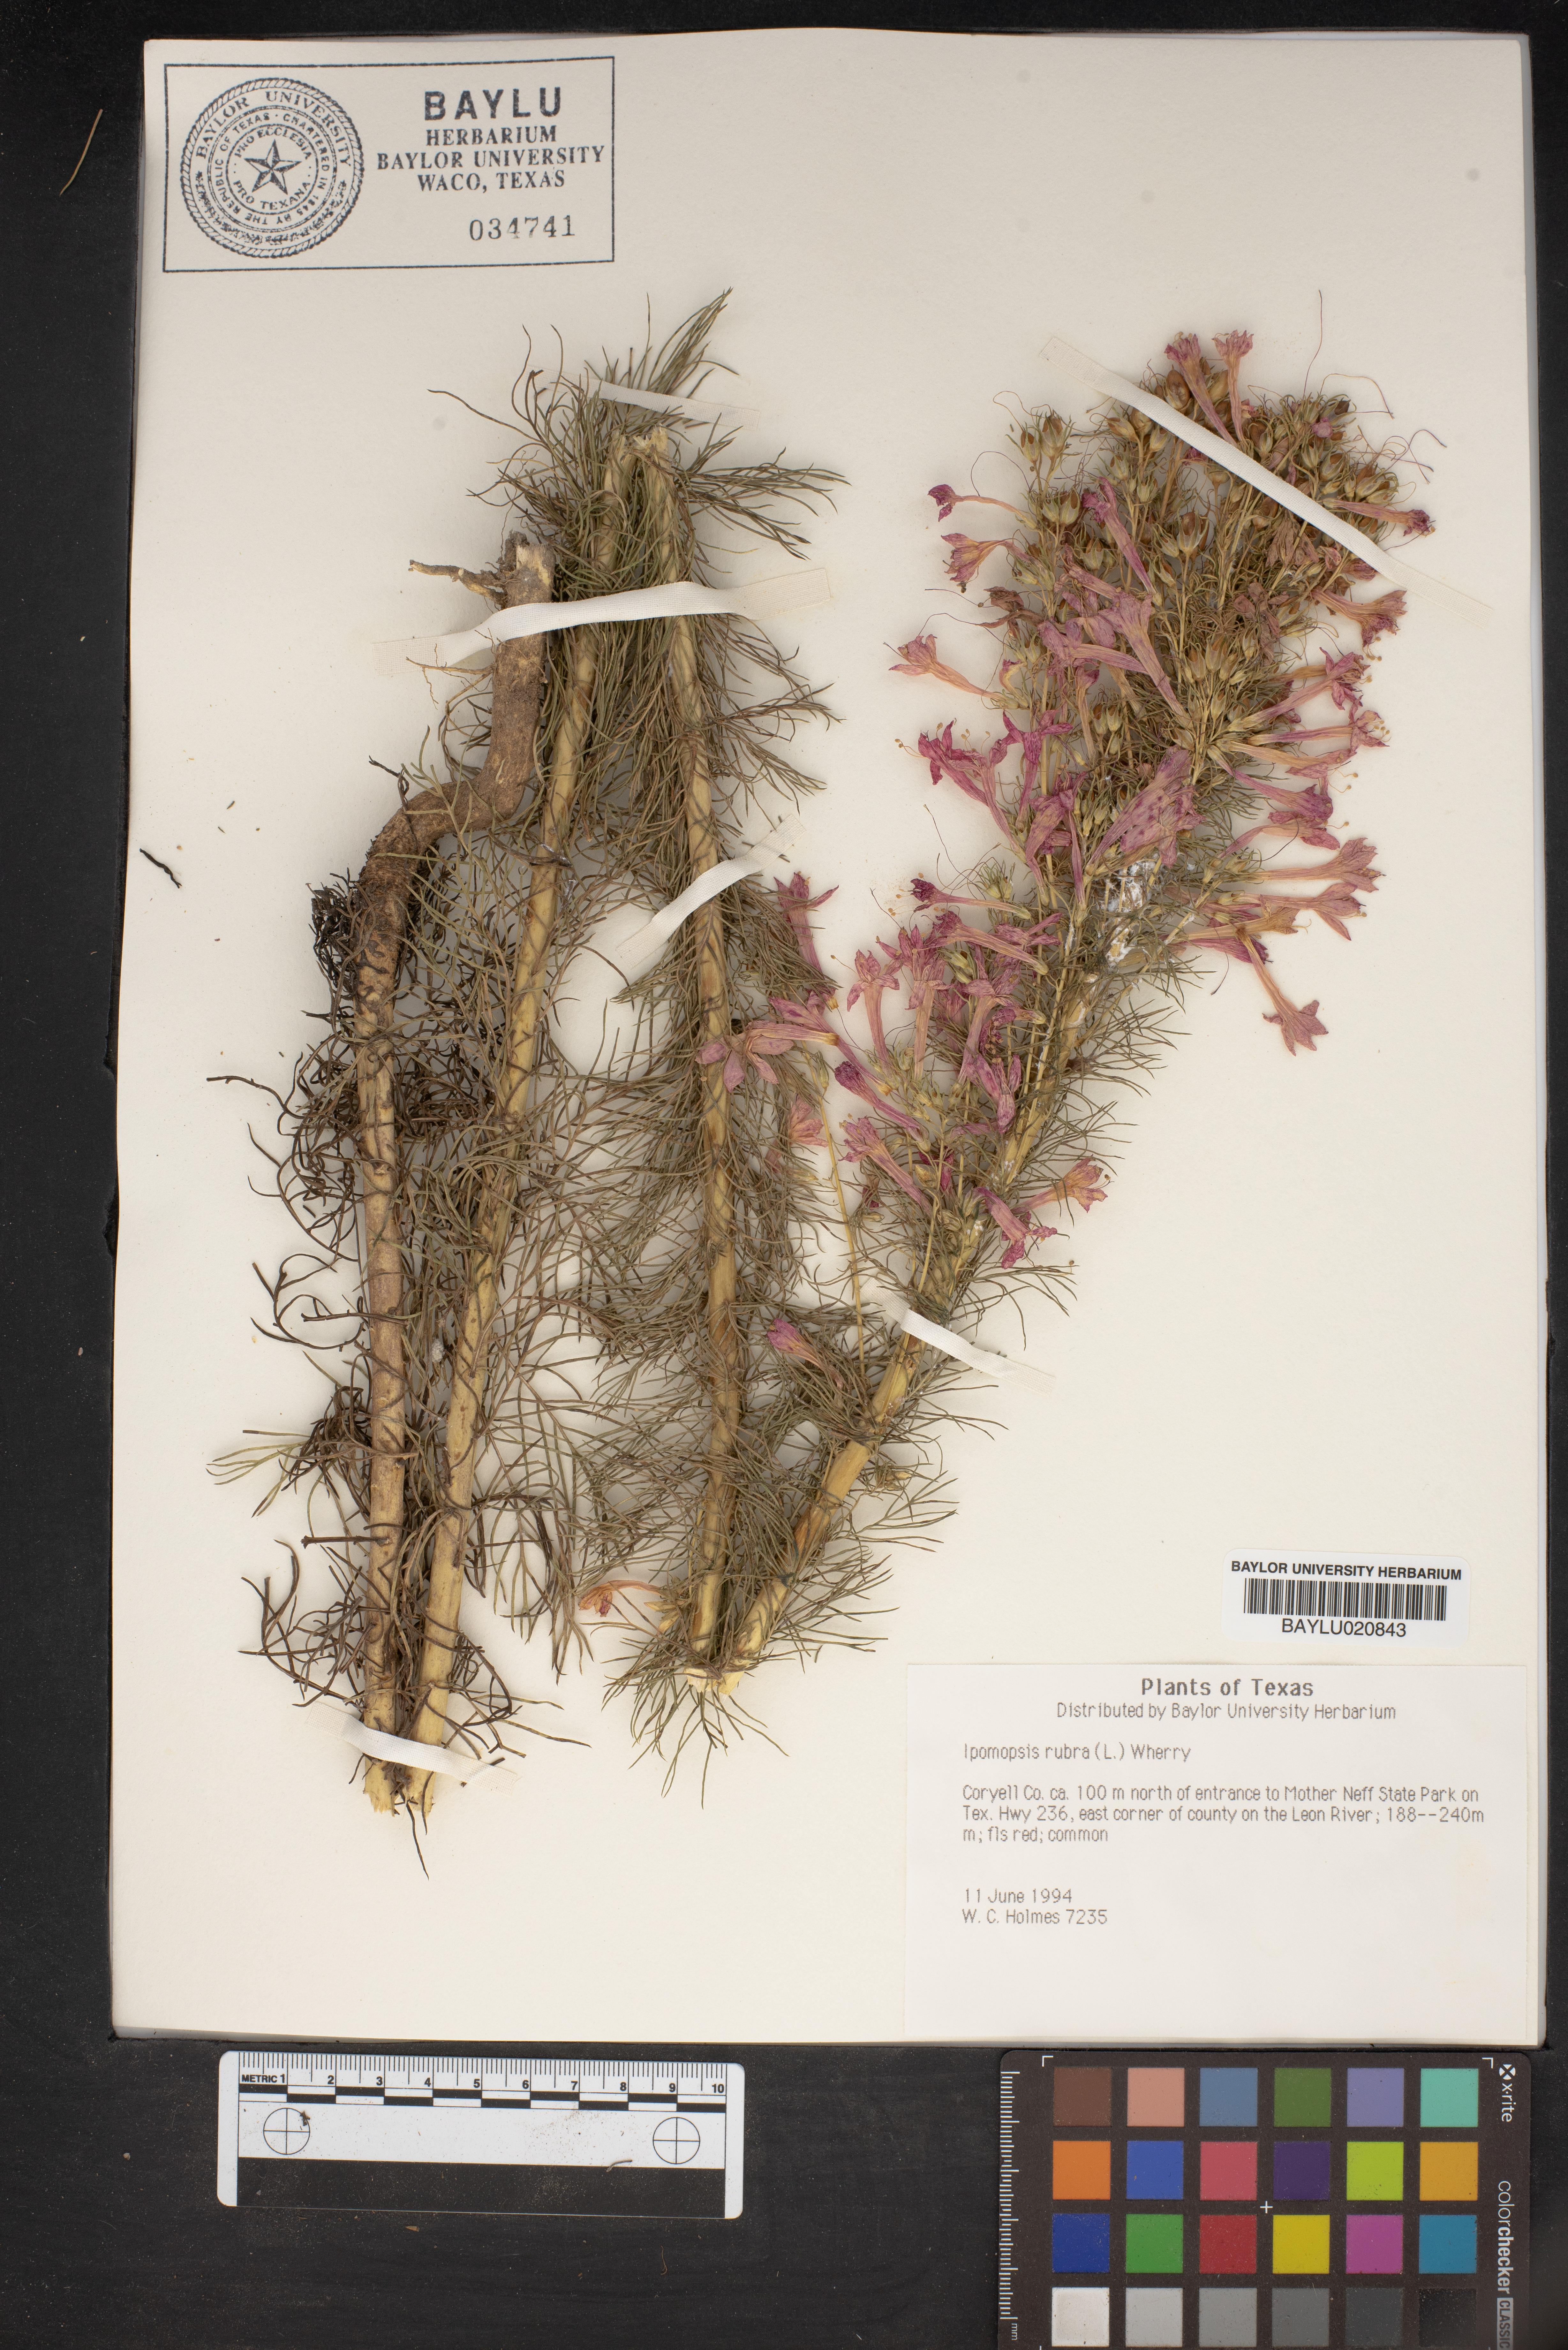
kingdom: Plantae
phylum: Tracheophyta
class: Magnoliopsida
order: Ericales
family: Polemoniaceae
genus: Ipomopsis
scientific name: Ipomopsis rubra
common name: Skyrocket
